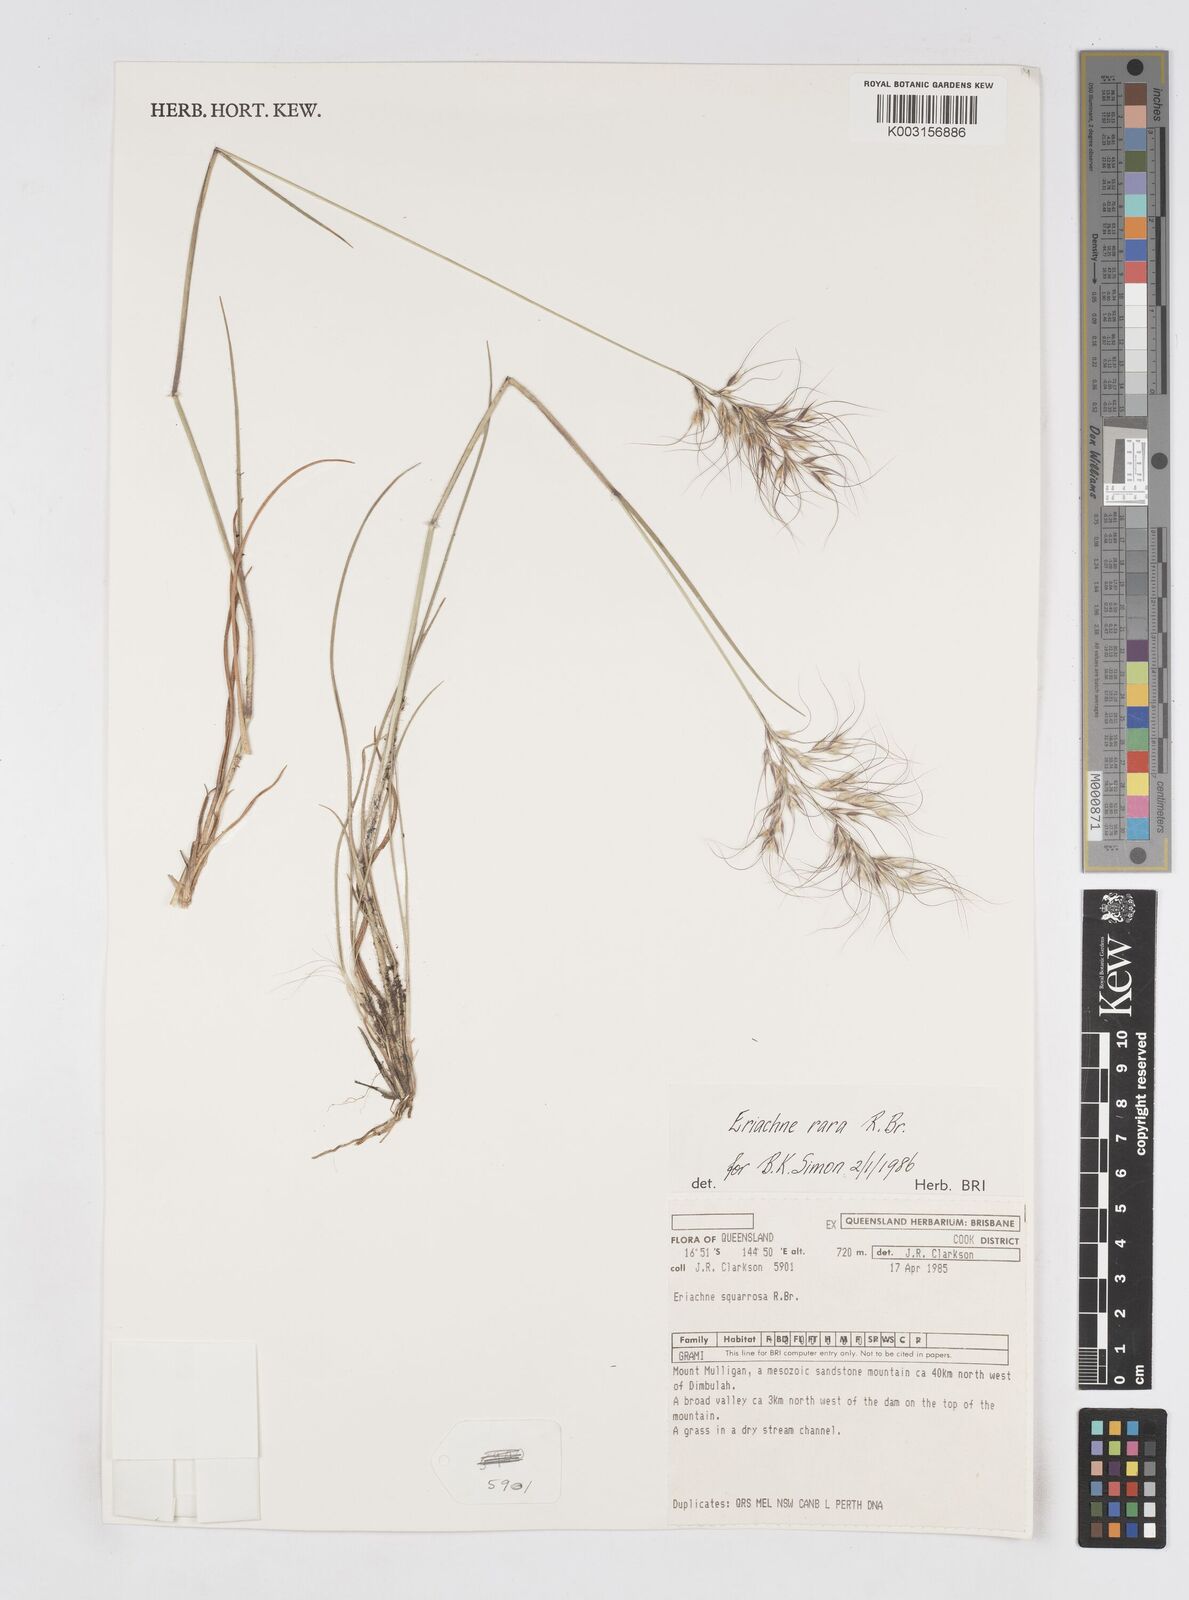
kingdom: Plantae
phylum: Tracheophyta
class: Liliopsida
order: Poales
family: Poaceae
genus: Eriachne
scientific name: Eriachne rara
